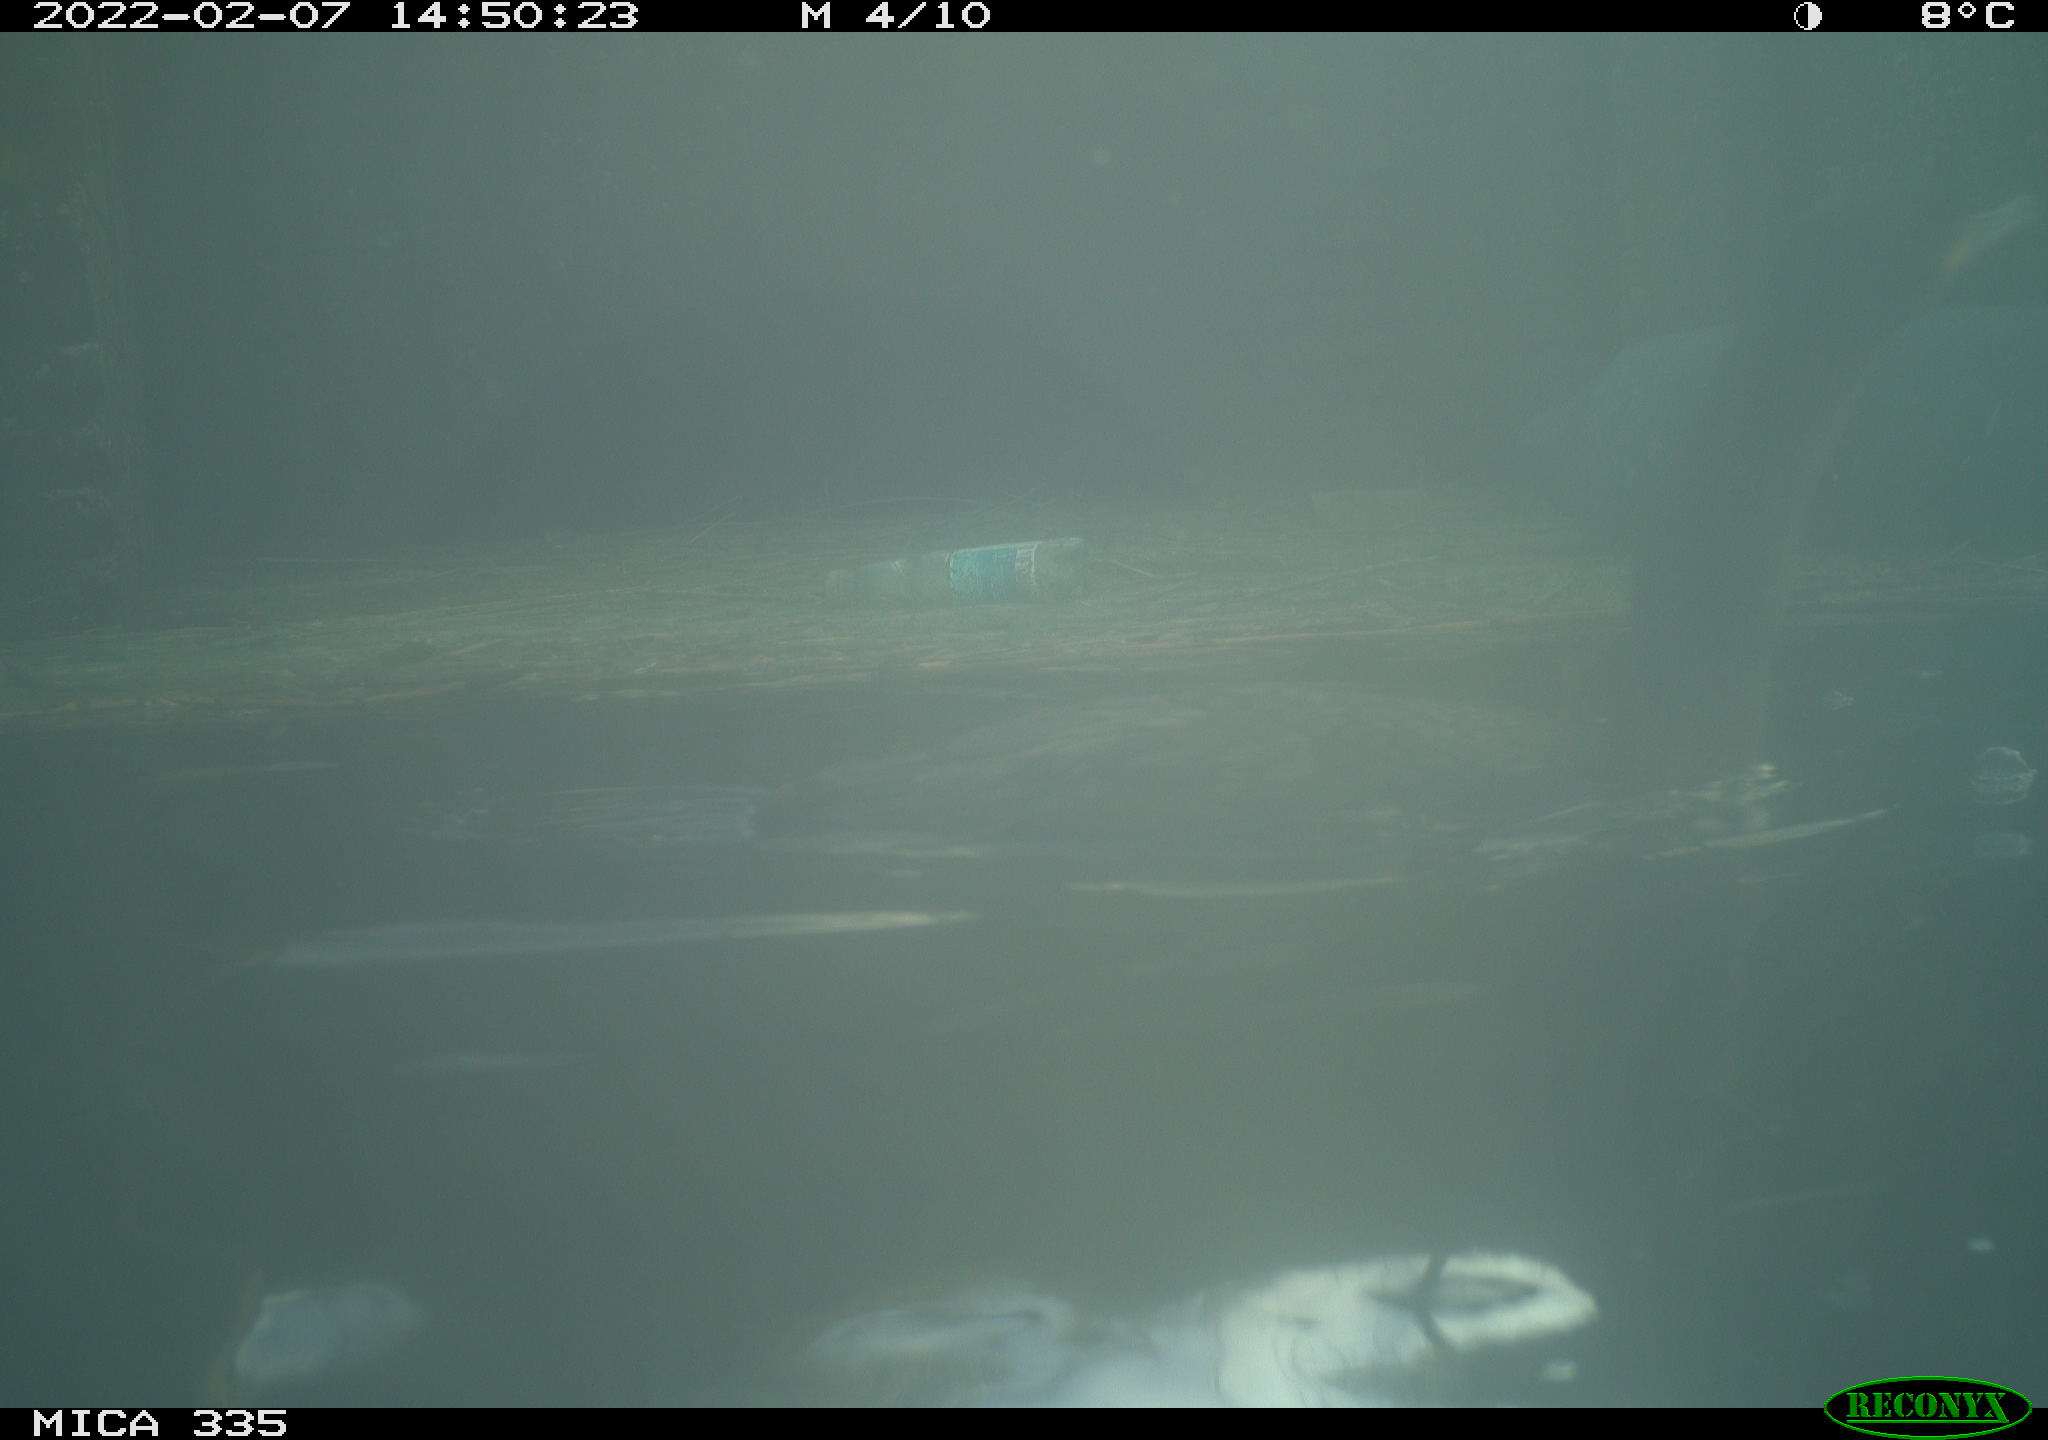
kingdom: Animalia
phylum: Chordata
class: Aves
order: Suliformes
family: Phalacrocoracidae
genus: Phalacrocorax
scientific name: Phalacrocorax carbo
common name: Great cormorant
